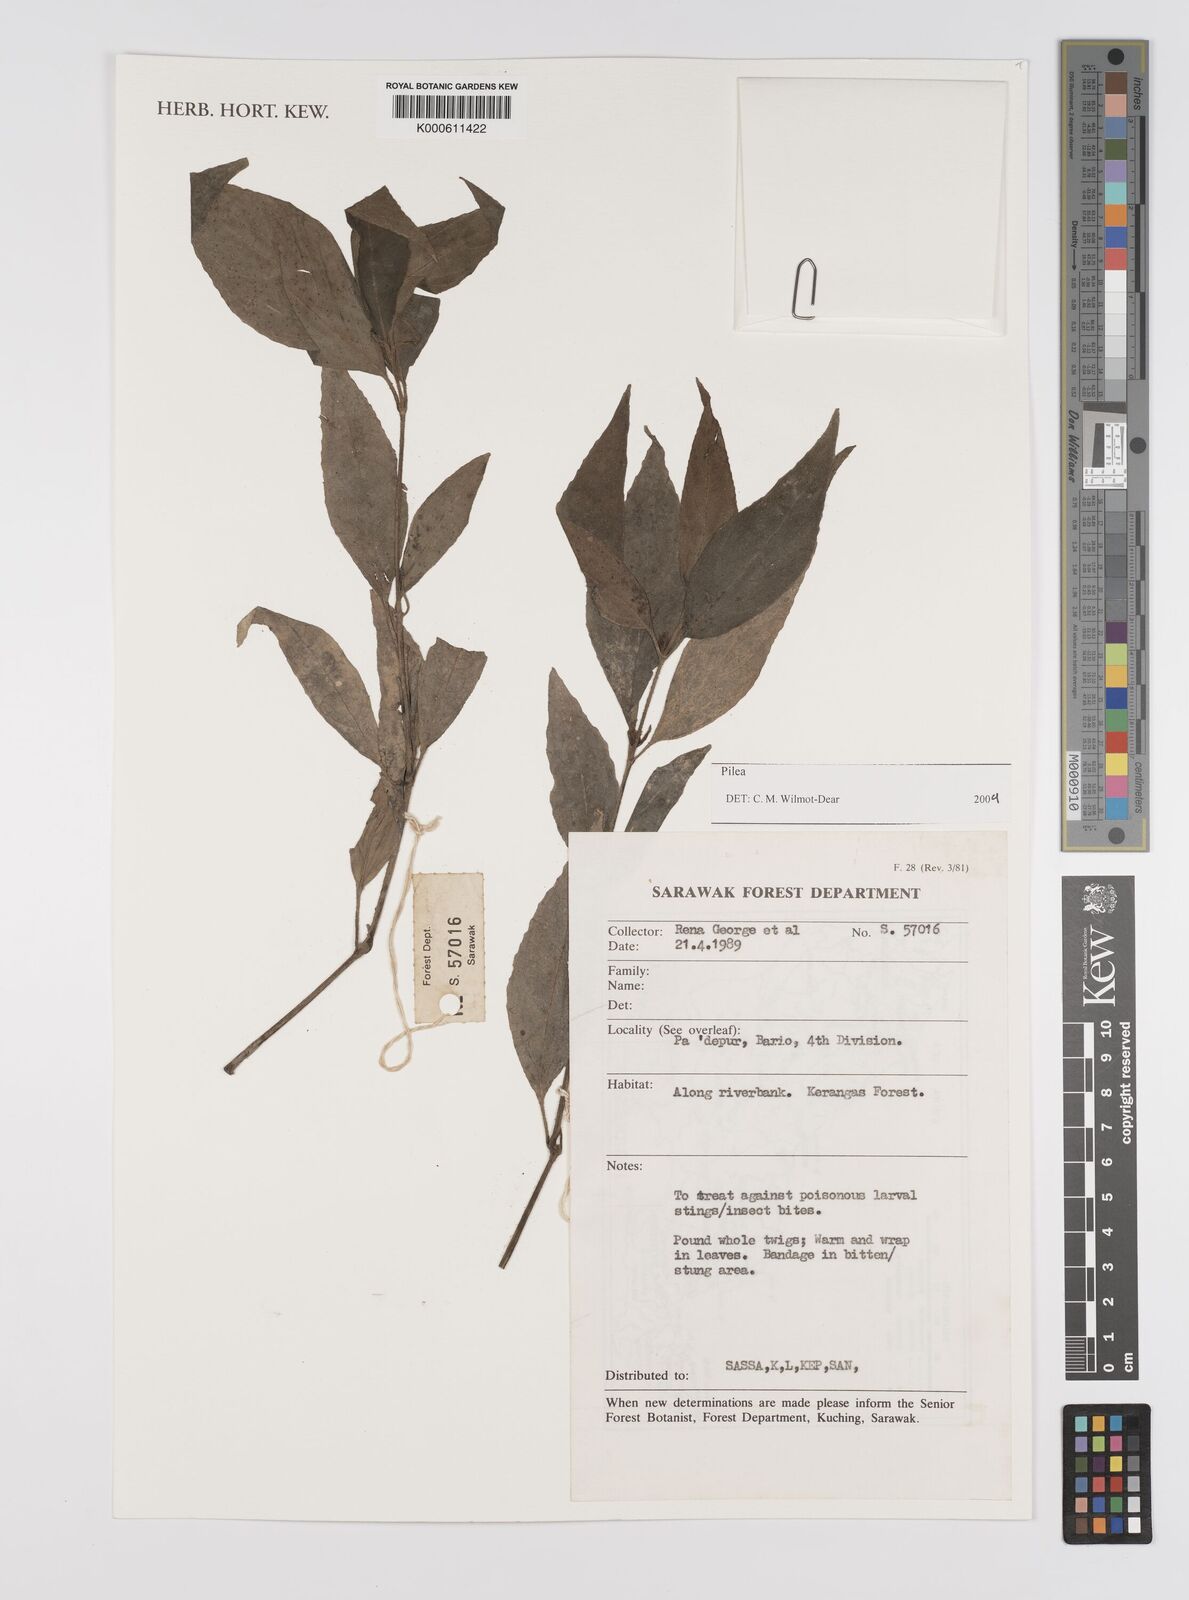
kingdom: Plantae
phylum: Tracheophyta
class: Magnoliopsida
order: Rosales
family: Urticaceae
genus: Pilea
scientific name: Pilea
